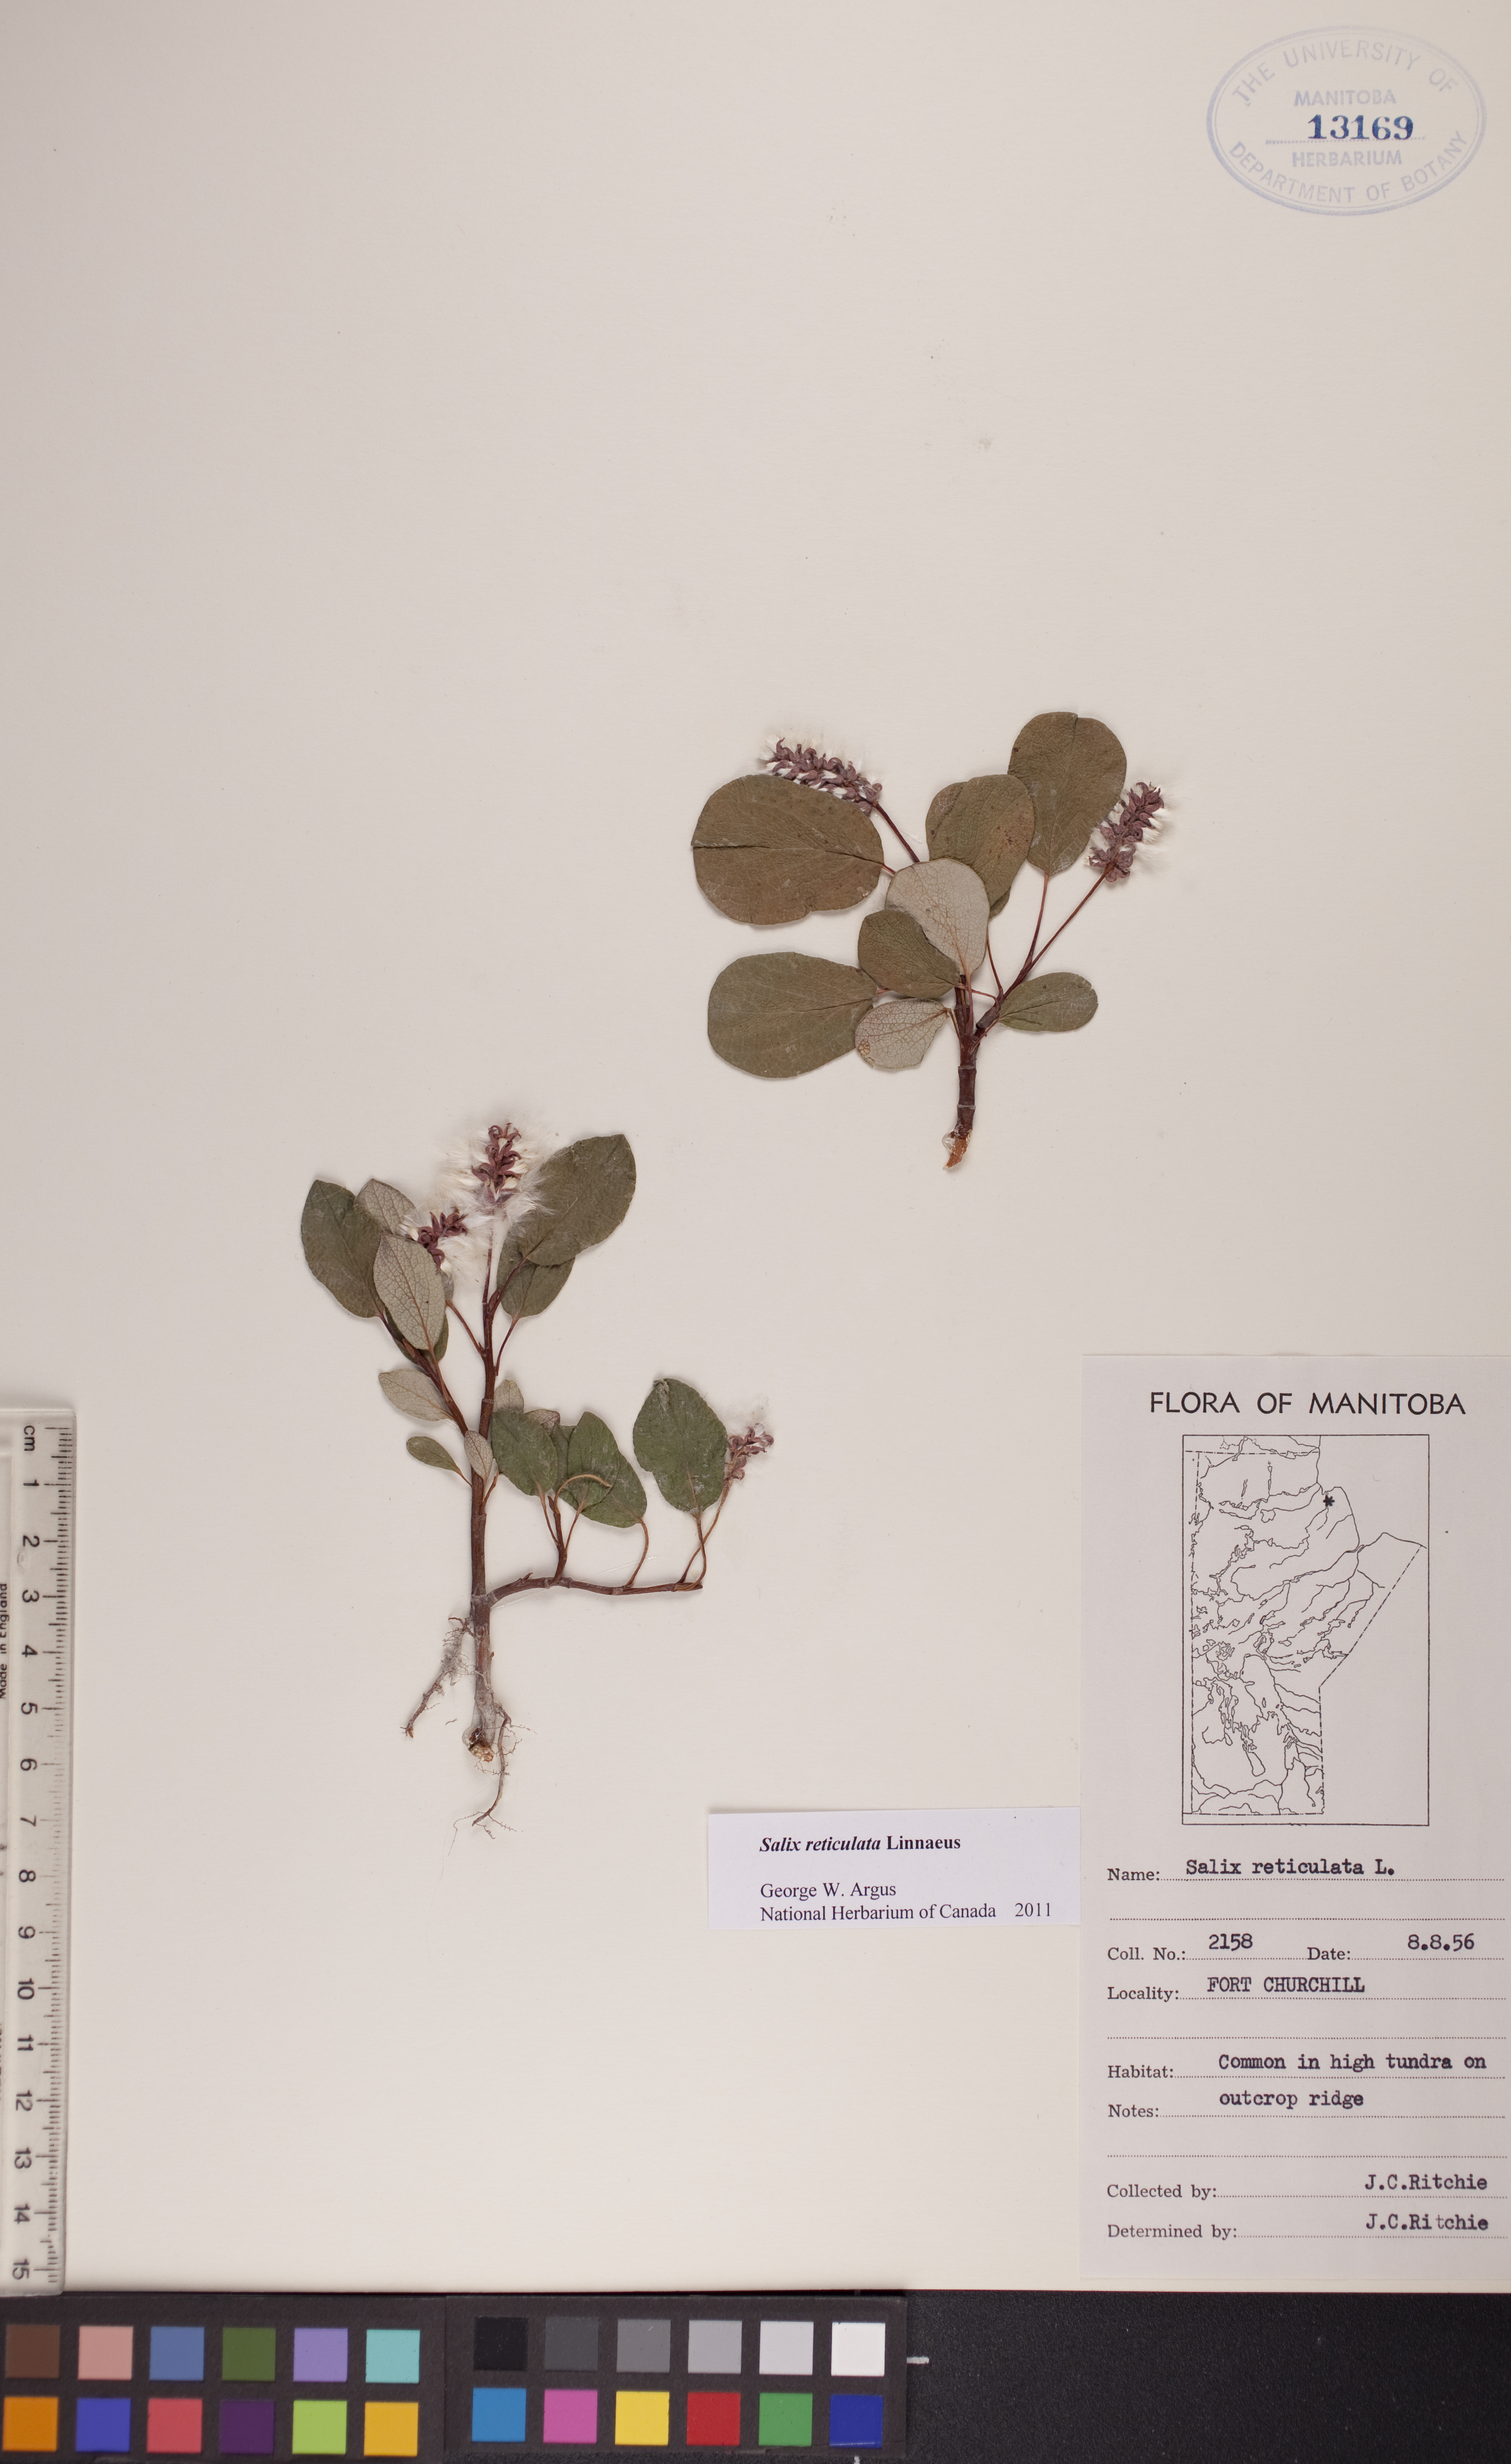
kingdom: Plantae
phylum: Tracheophyta
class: Magnoliopsida
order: Malpighiales
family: Salicaceae
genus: Salix
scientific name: Salix reticulata
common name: Net-leaved willow
